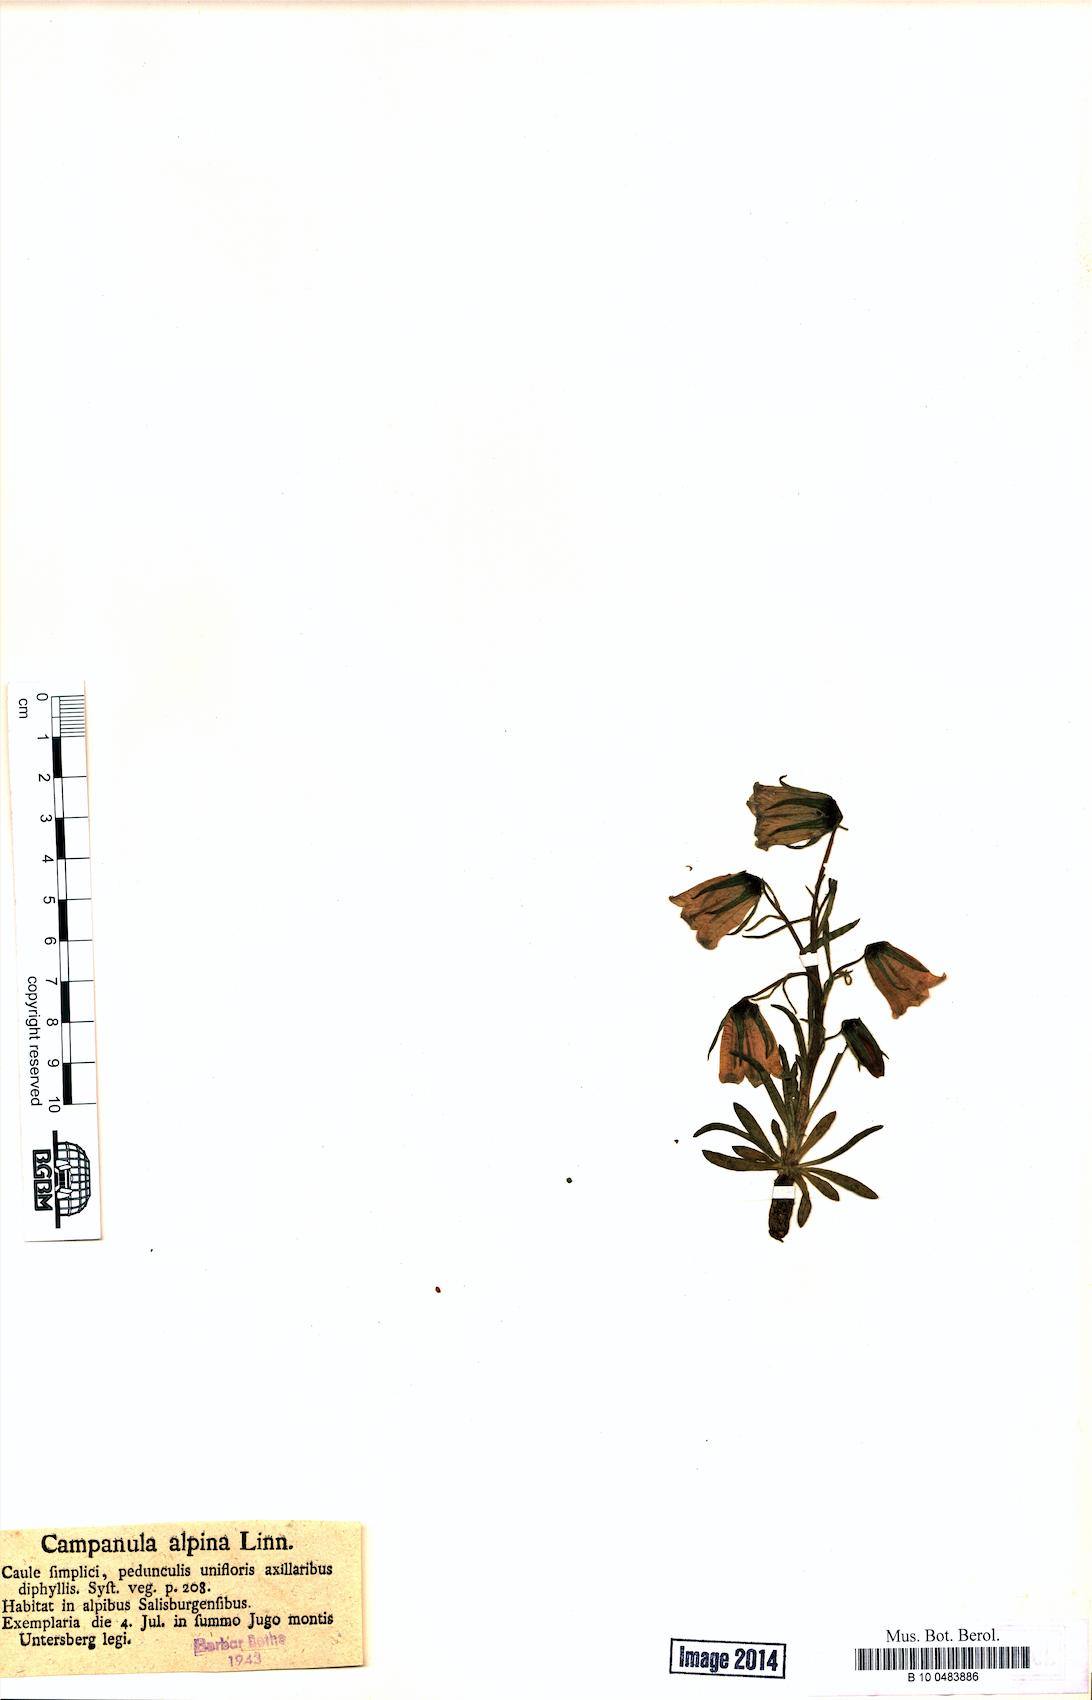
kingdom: Plantae
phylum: Tracheophyta
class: Magnoliopsida
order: Asterales
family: Campanulaceae
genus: Campanula
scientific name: Campanula alpina
